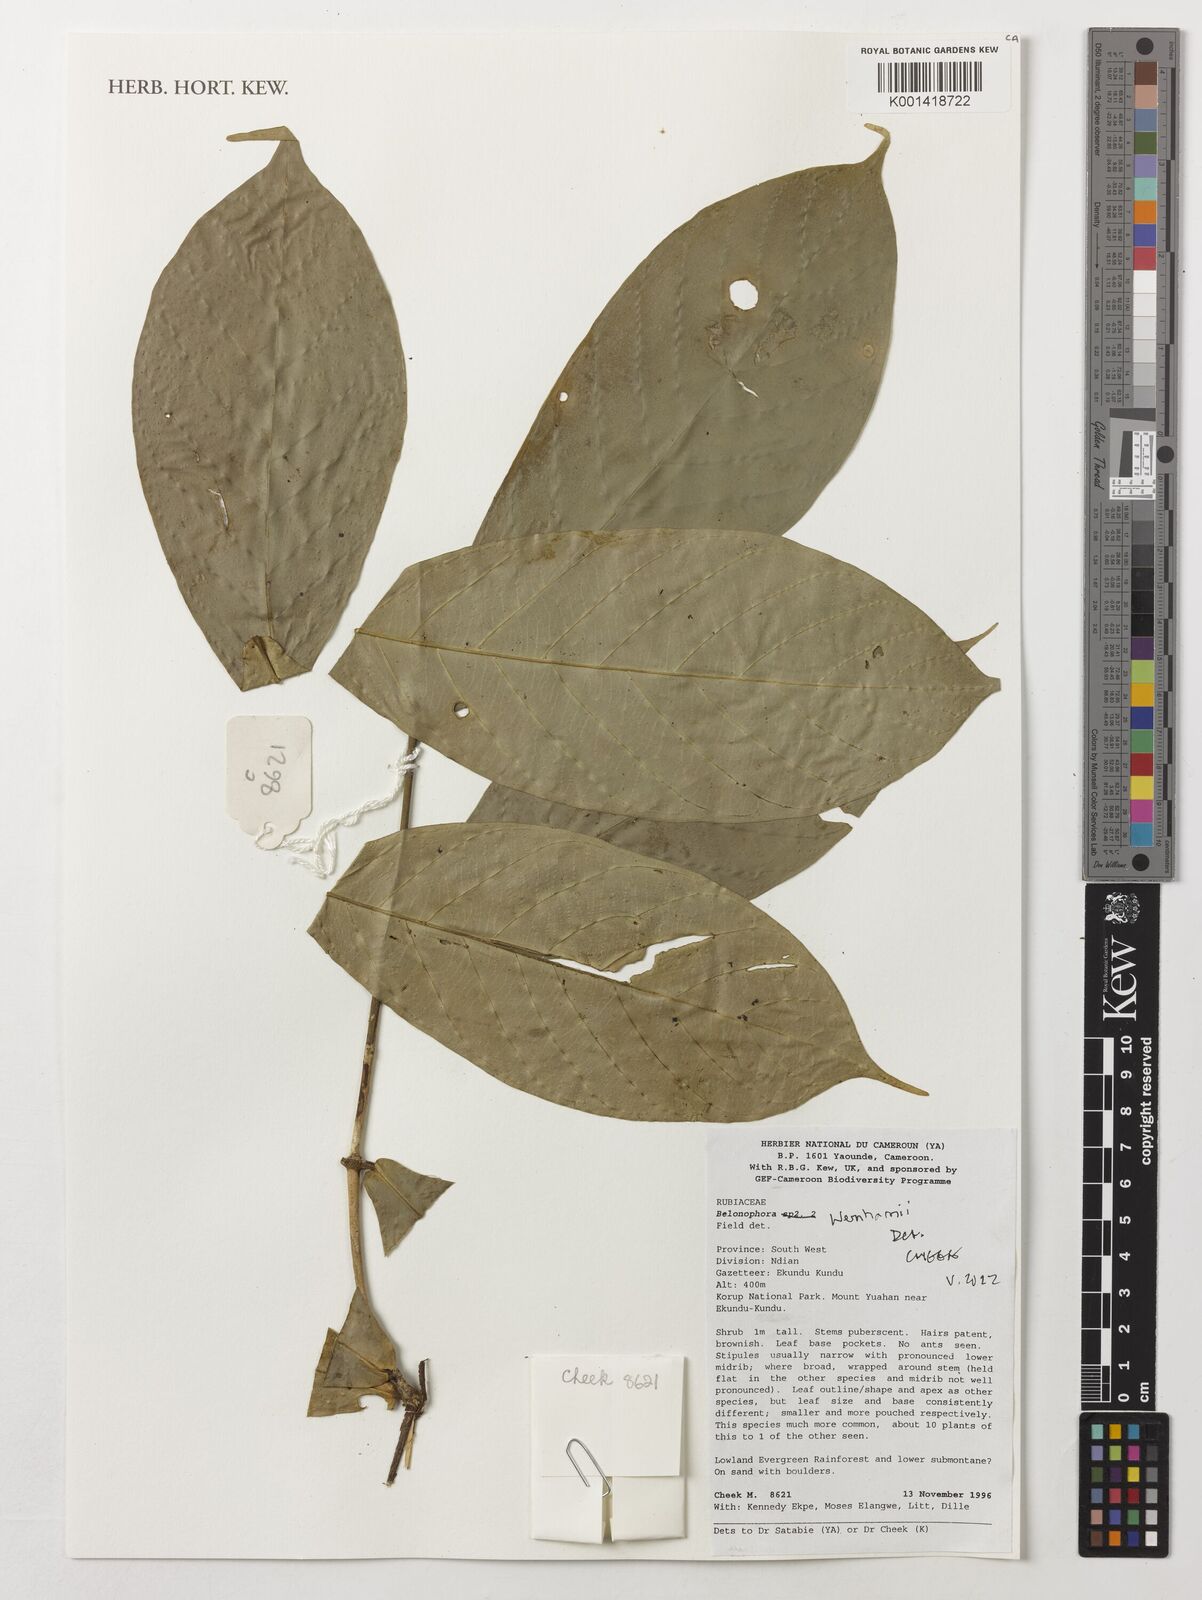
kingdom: Plantae
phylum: Tracheophyta
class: Magnoliopsida
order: Gentianales
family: Rubiaceae
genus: Belonophora
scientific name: Belonophora wernhamii
